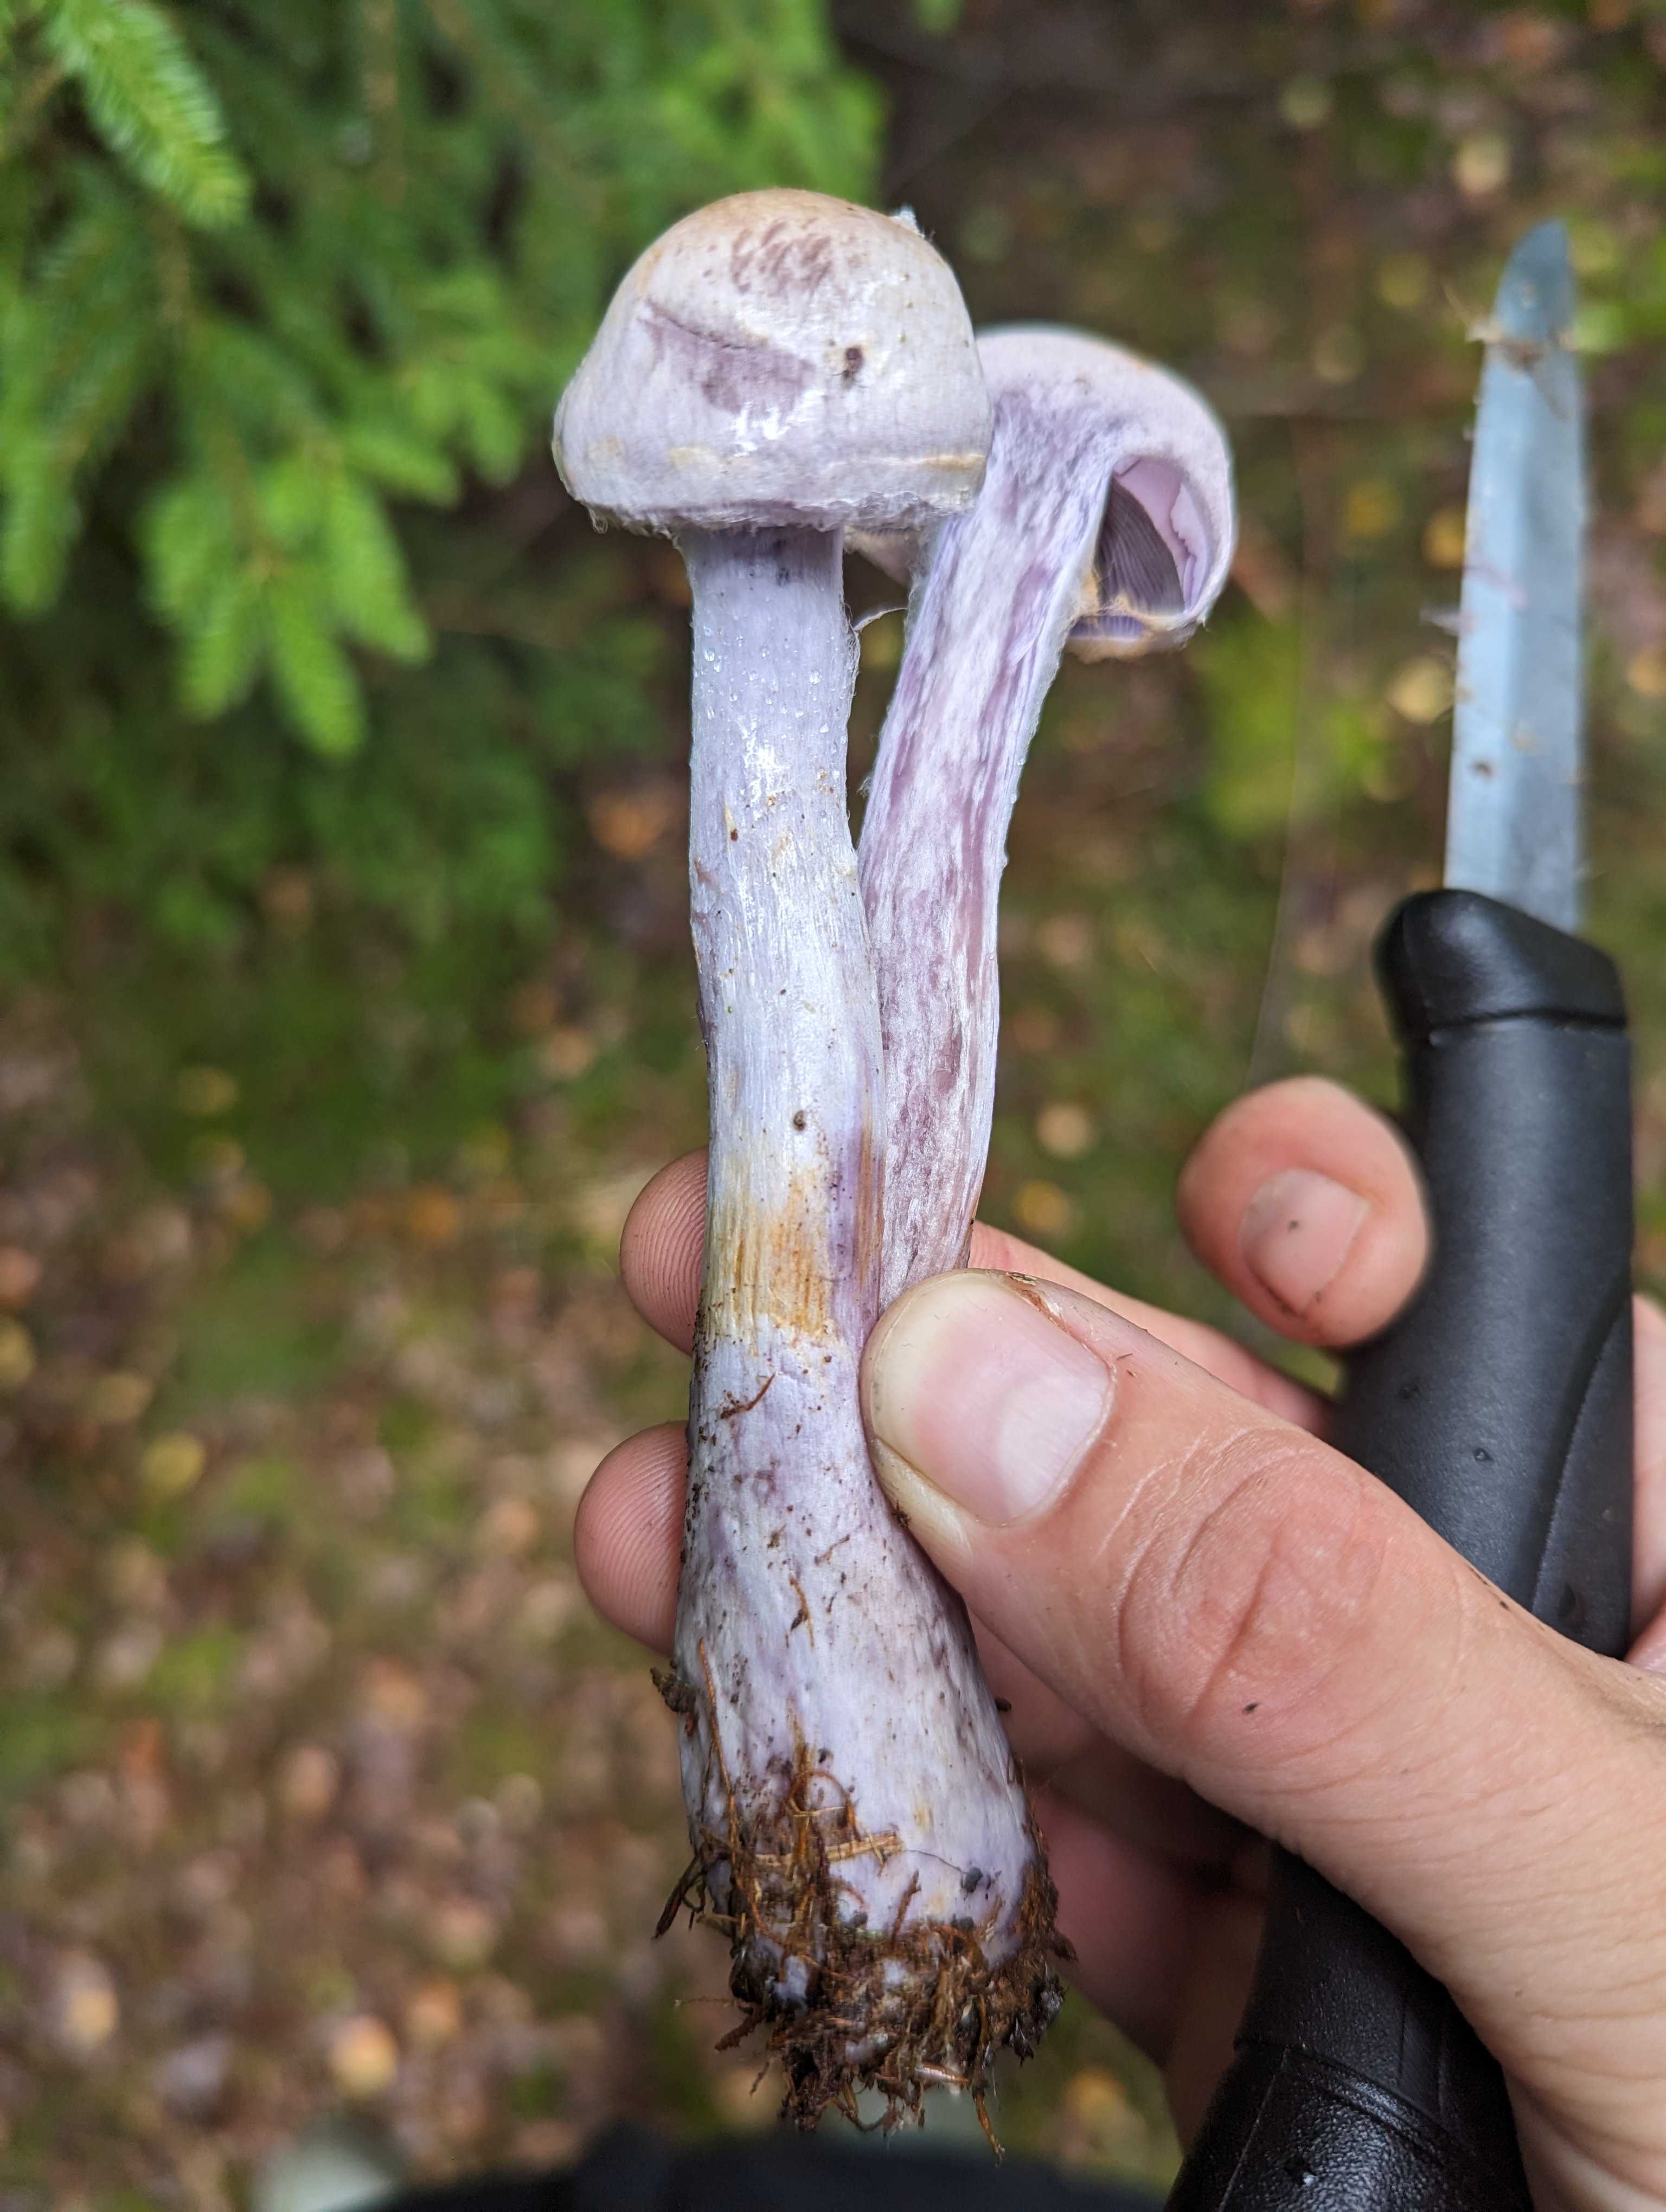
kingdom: Fungi
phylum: Basidiomycota
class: Agaricomycetes
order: Agaricales
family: Cortinariaceae
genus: Cortinarius
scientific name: Cortinarius camphoratus
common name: stinkende slørhat
